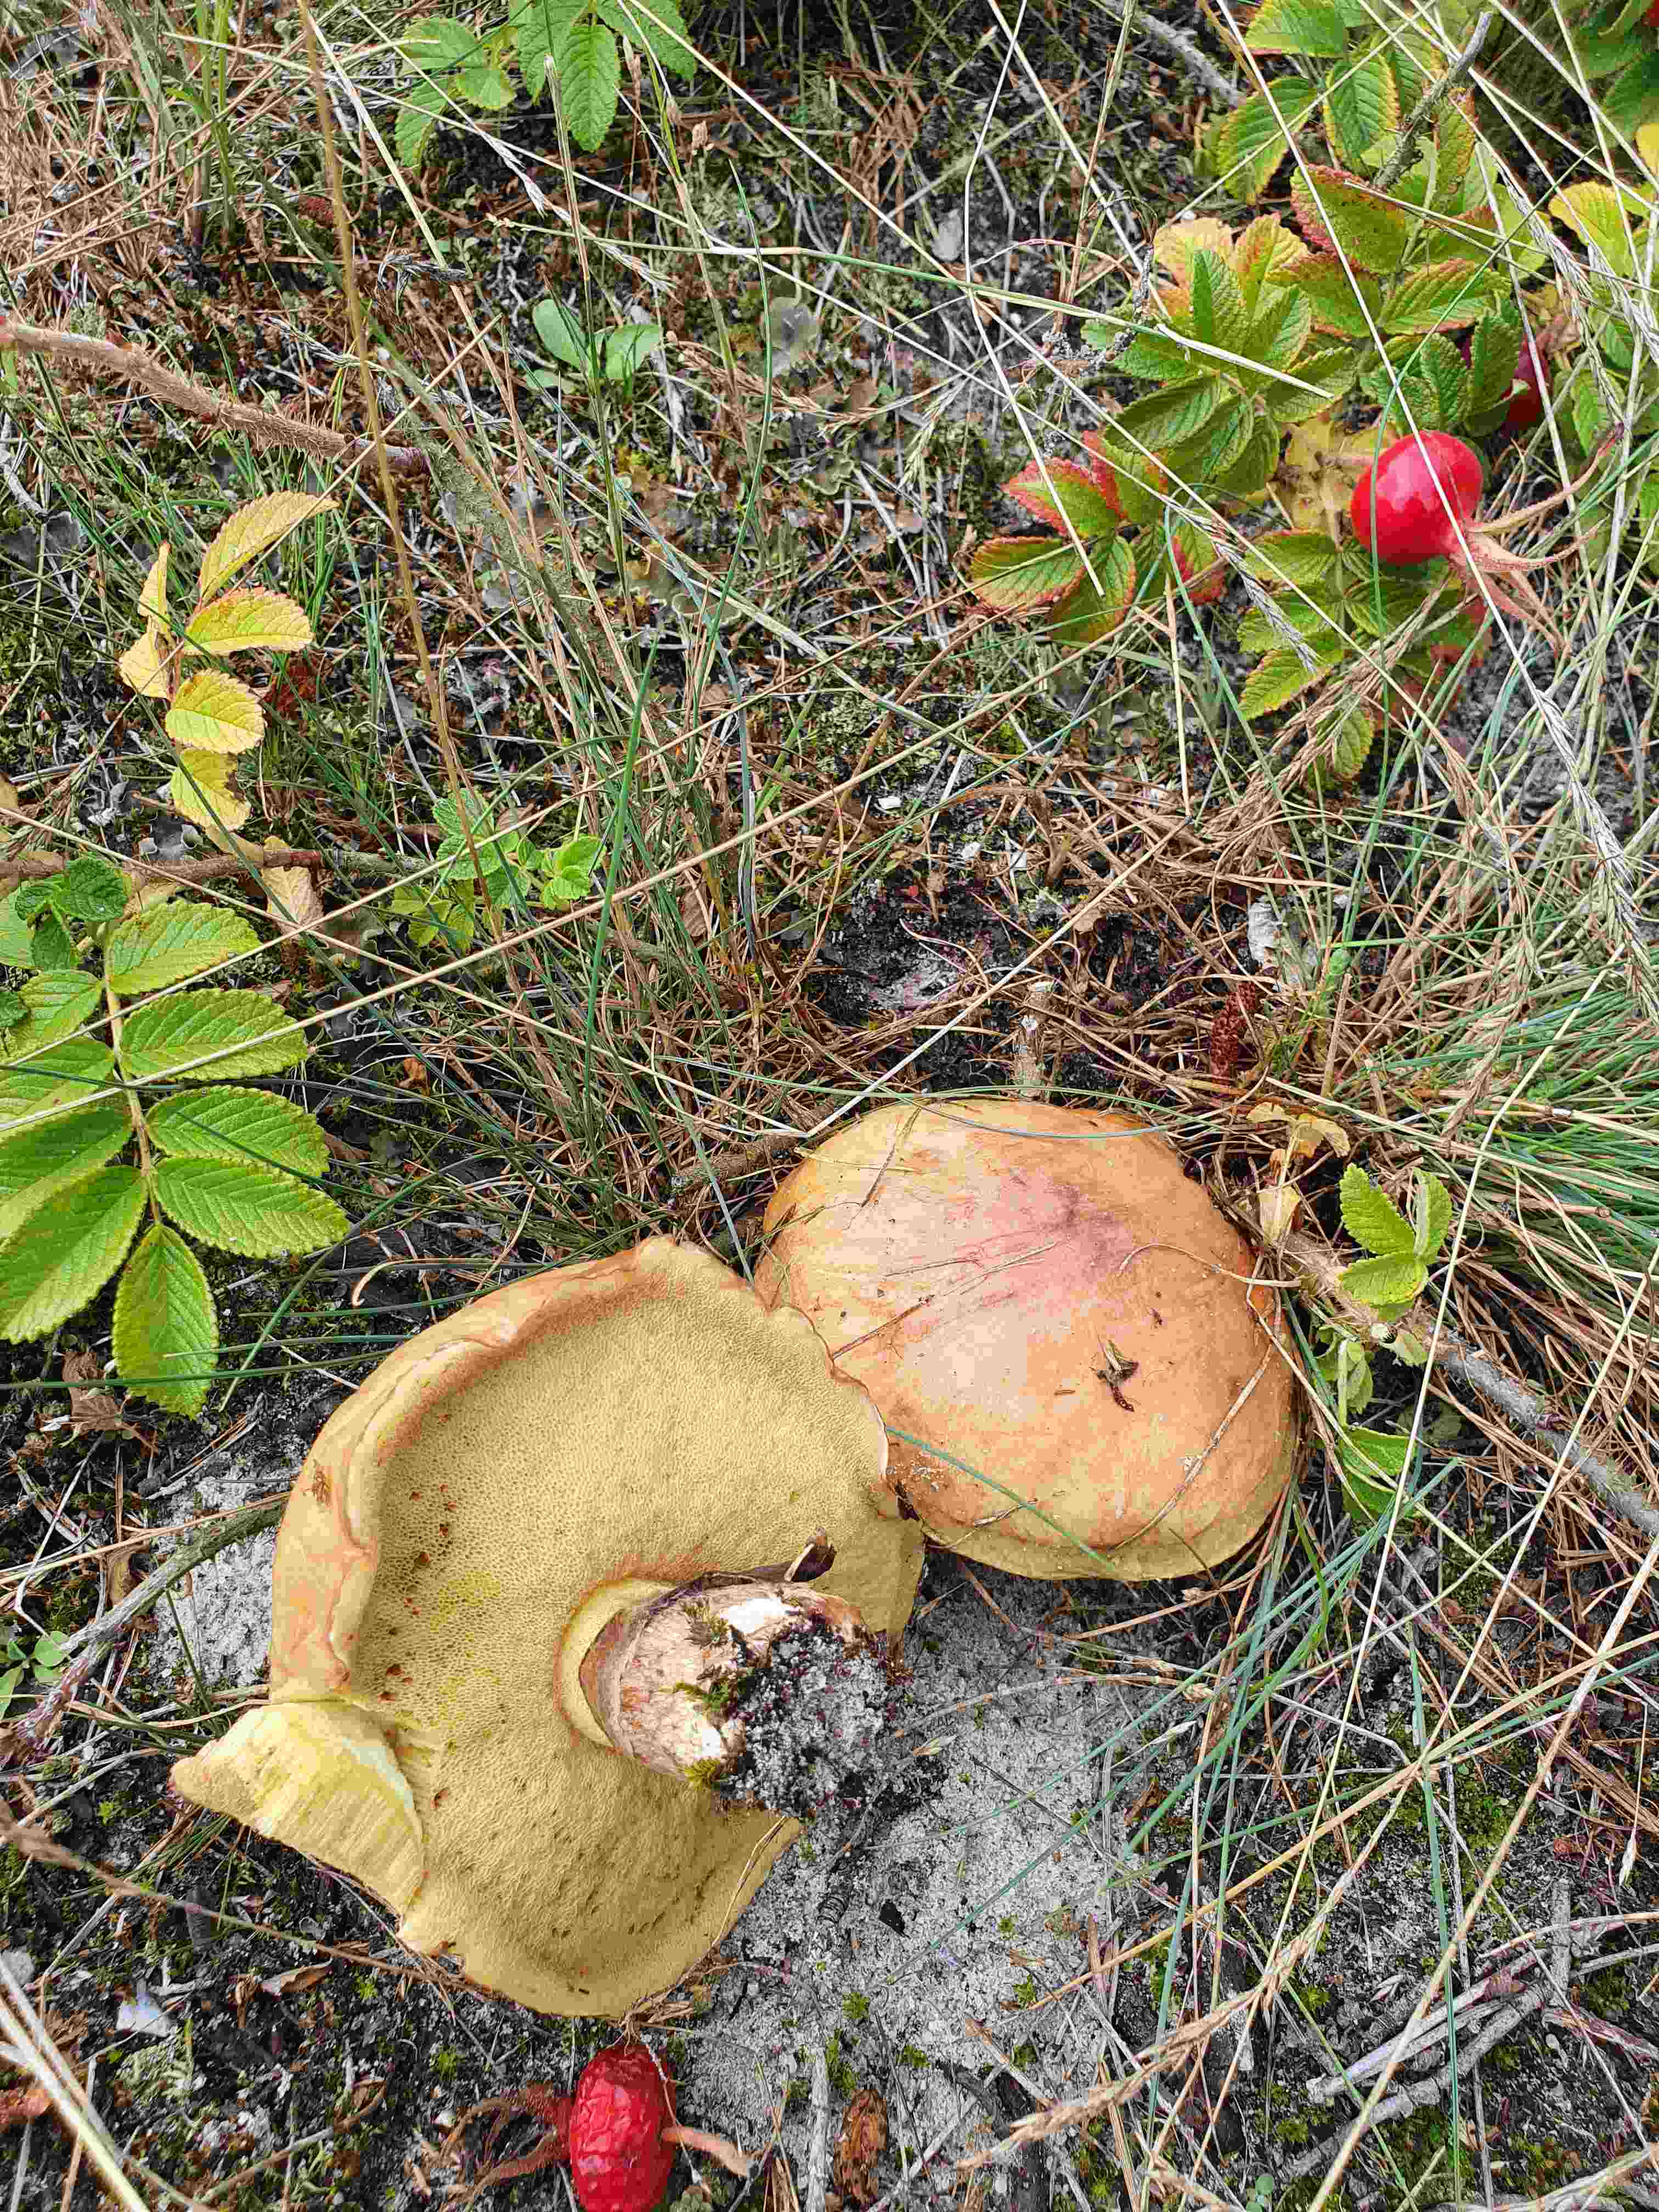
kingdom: Fungi
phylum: Basidiomycota
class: Agaricomycetes
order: Boletales
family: Suillaceae
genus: Suillus
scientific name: Suillus luteus
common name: brungul slimrørhat
